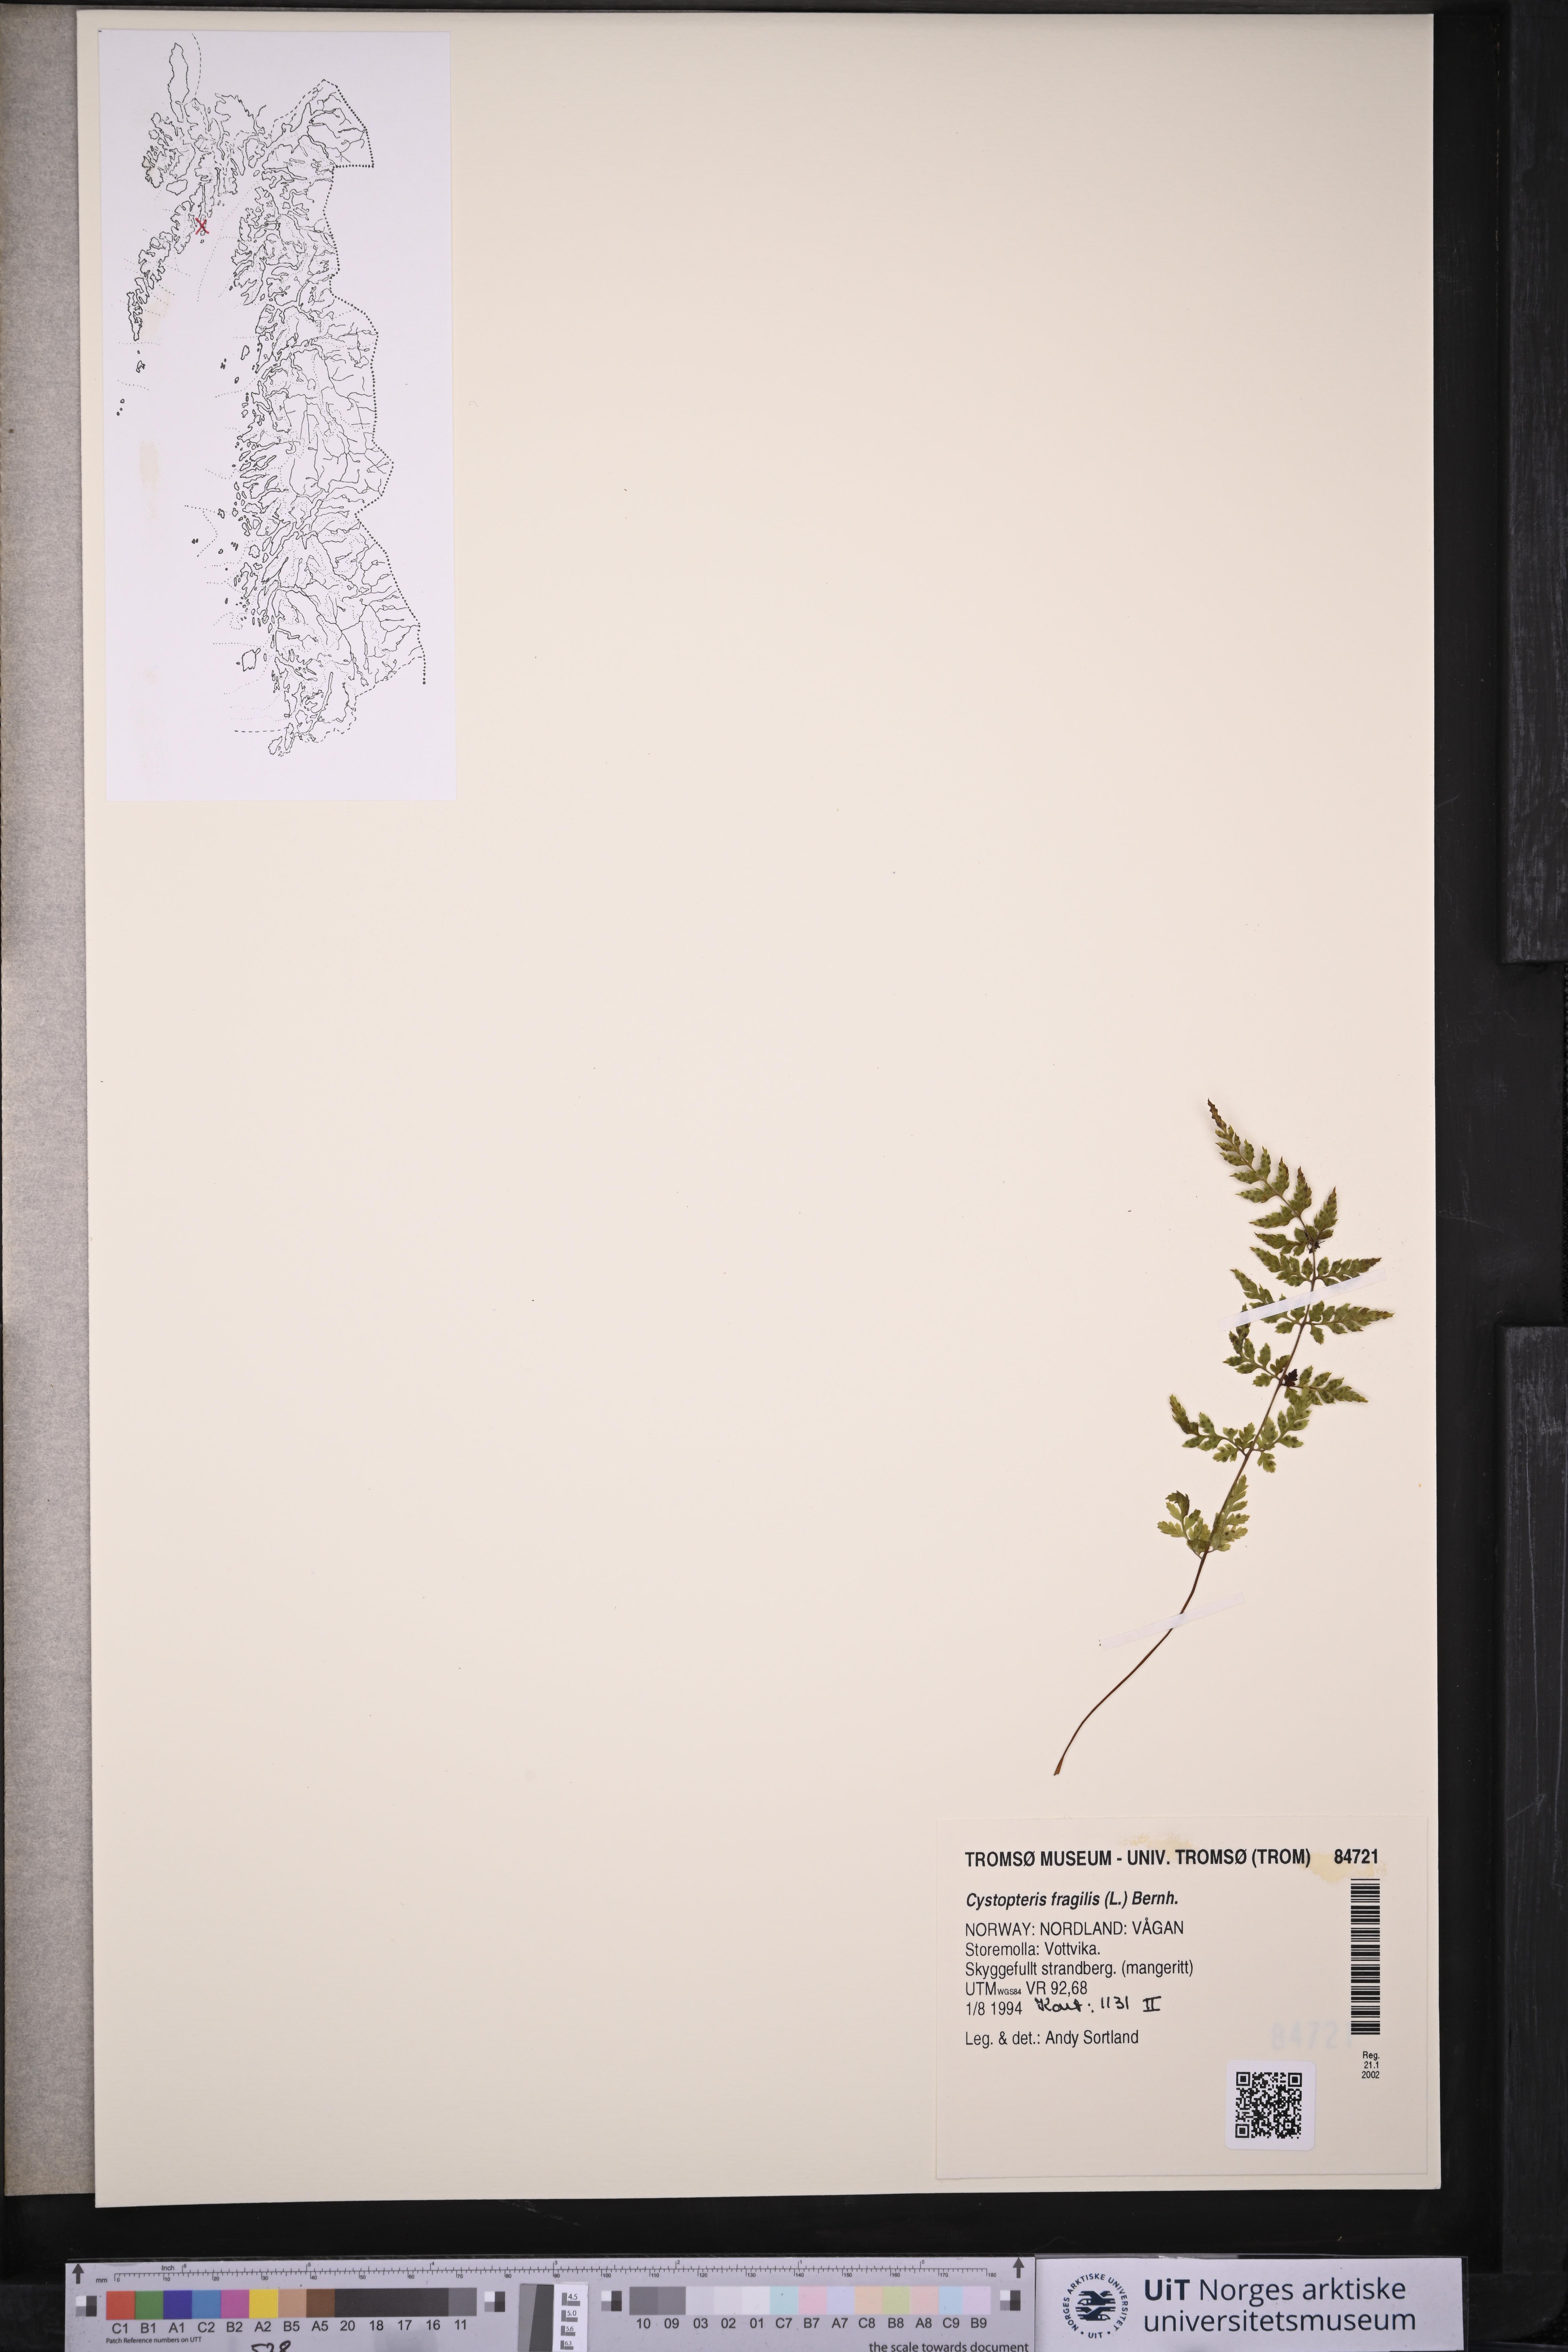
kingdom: Plantae
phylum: Tracheophyta
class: Polypodiopsida
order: Polypodiales
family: Cystopteridaceae
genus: Cystopteris
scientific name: Cystopteris fragilis
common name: Brittle bladder fern
